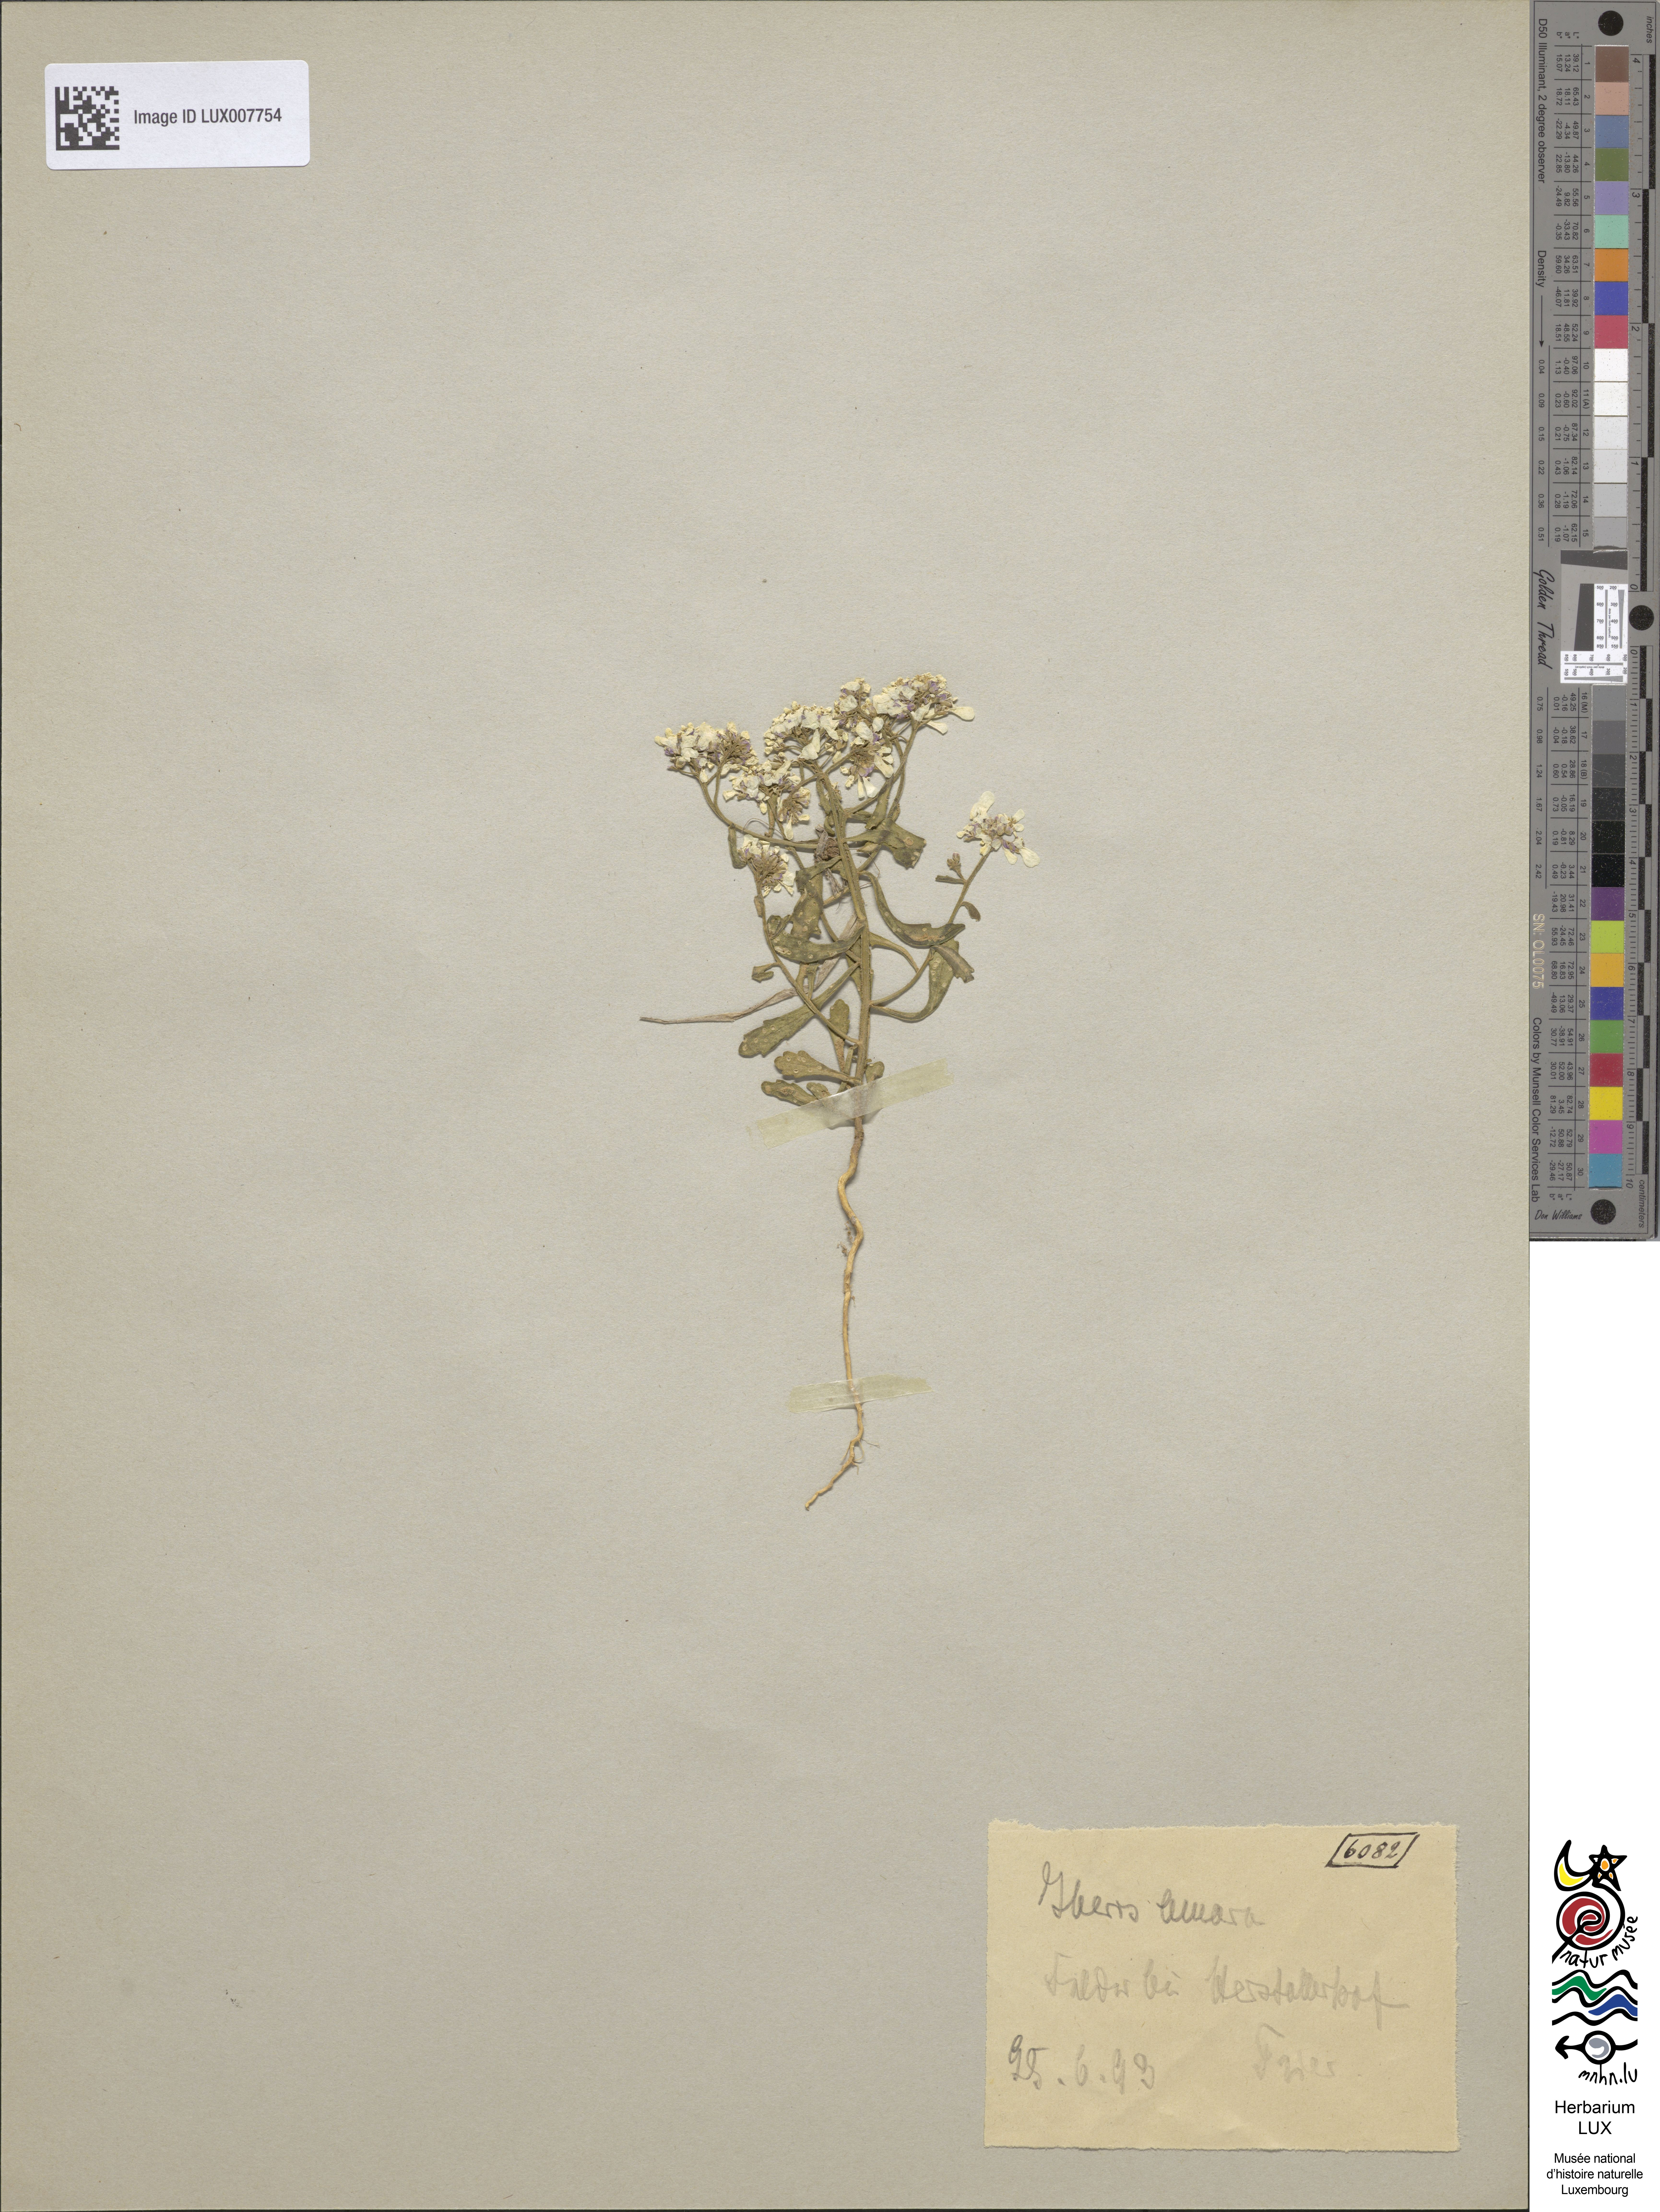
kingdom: Plantae
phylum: Tracheophyta
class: Magnoliopsida
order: Brassicales
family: Brassicaceae
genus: Iberis
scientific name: Iberis amara
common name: Annual candytuft
